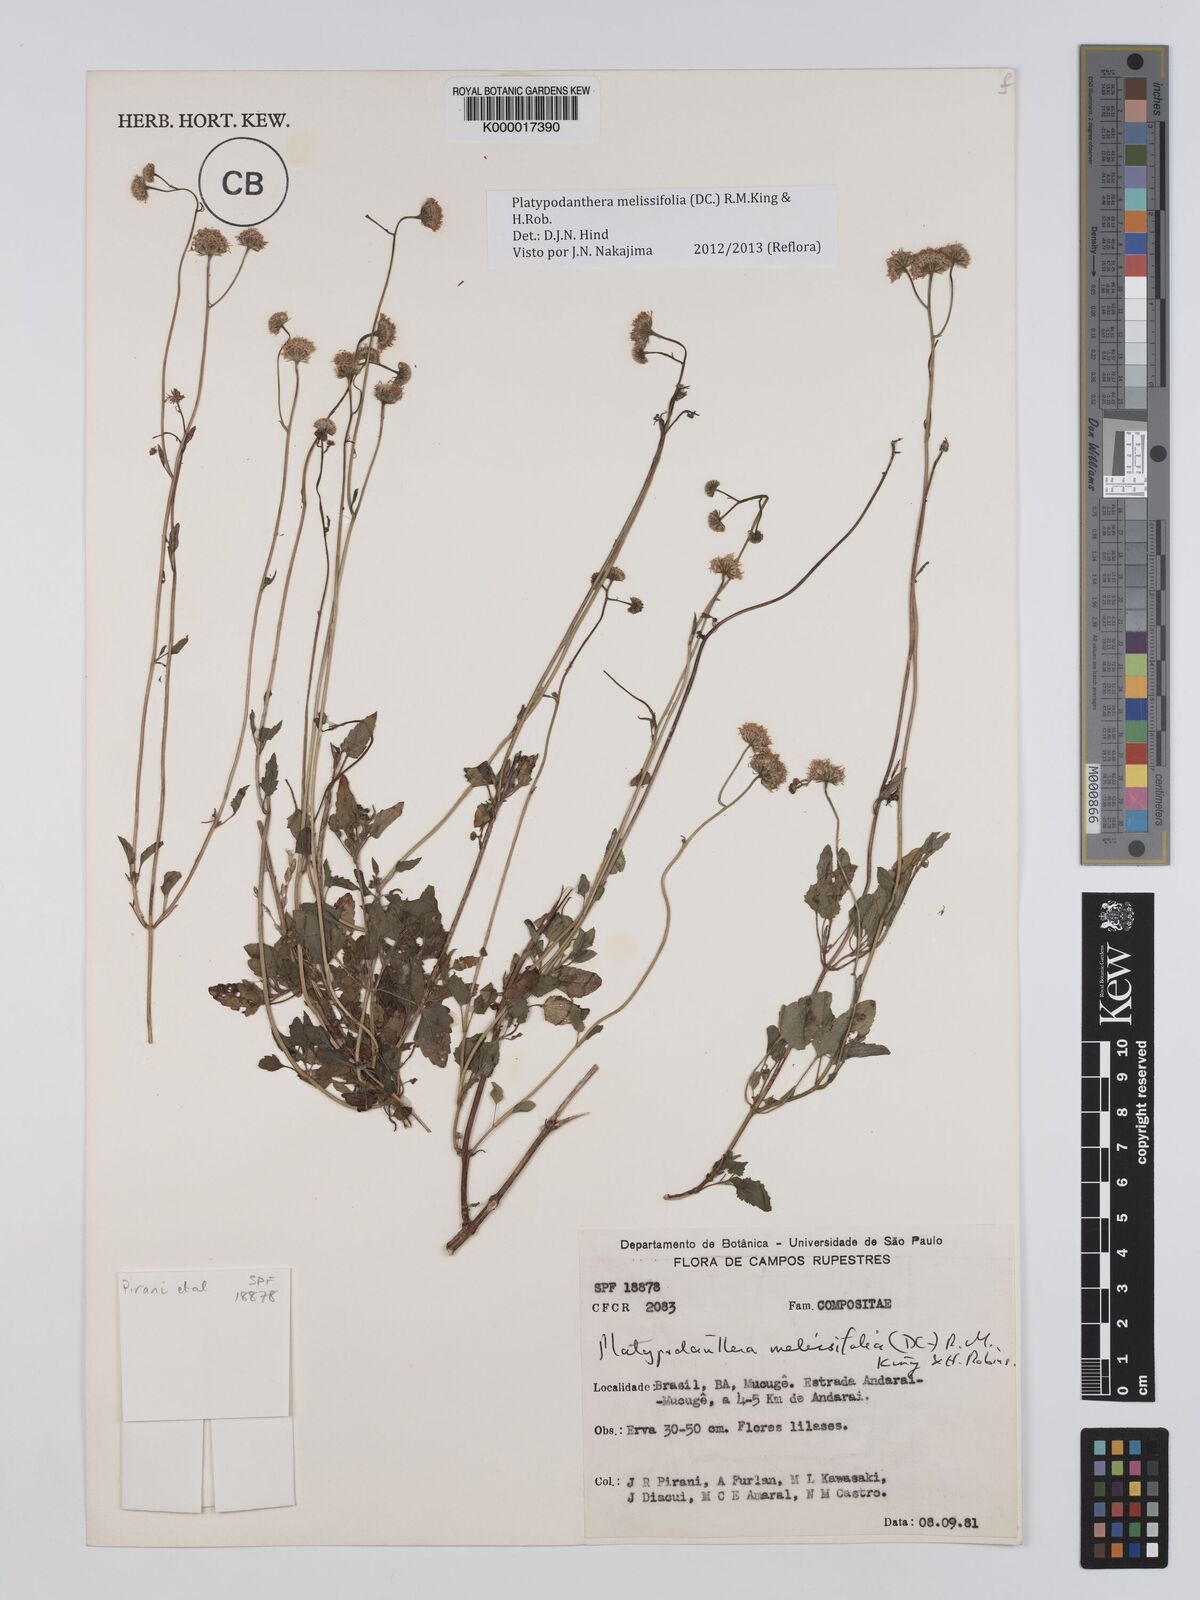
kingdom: Plantae
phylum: Tracheophyta
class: Magnoliopsida
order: Asterales
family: Asteraceae
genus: Platypodanthera
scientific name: Platypodanthera melissifolia
